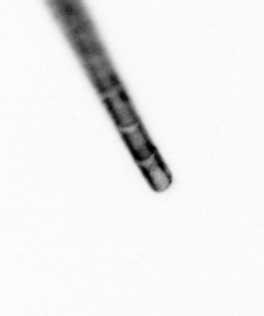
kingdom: Chromista
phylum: Ochrophyta
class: Bacillariophyceae
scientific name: Bacillariophyceae
